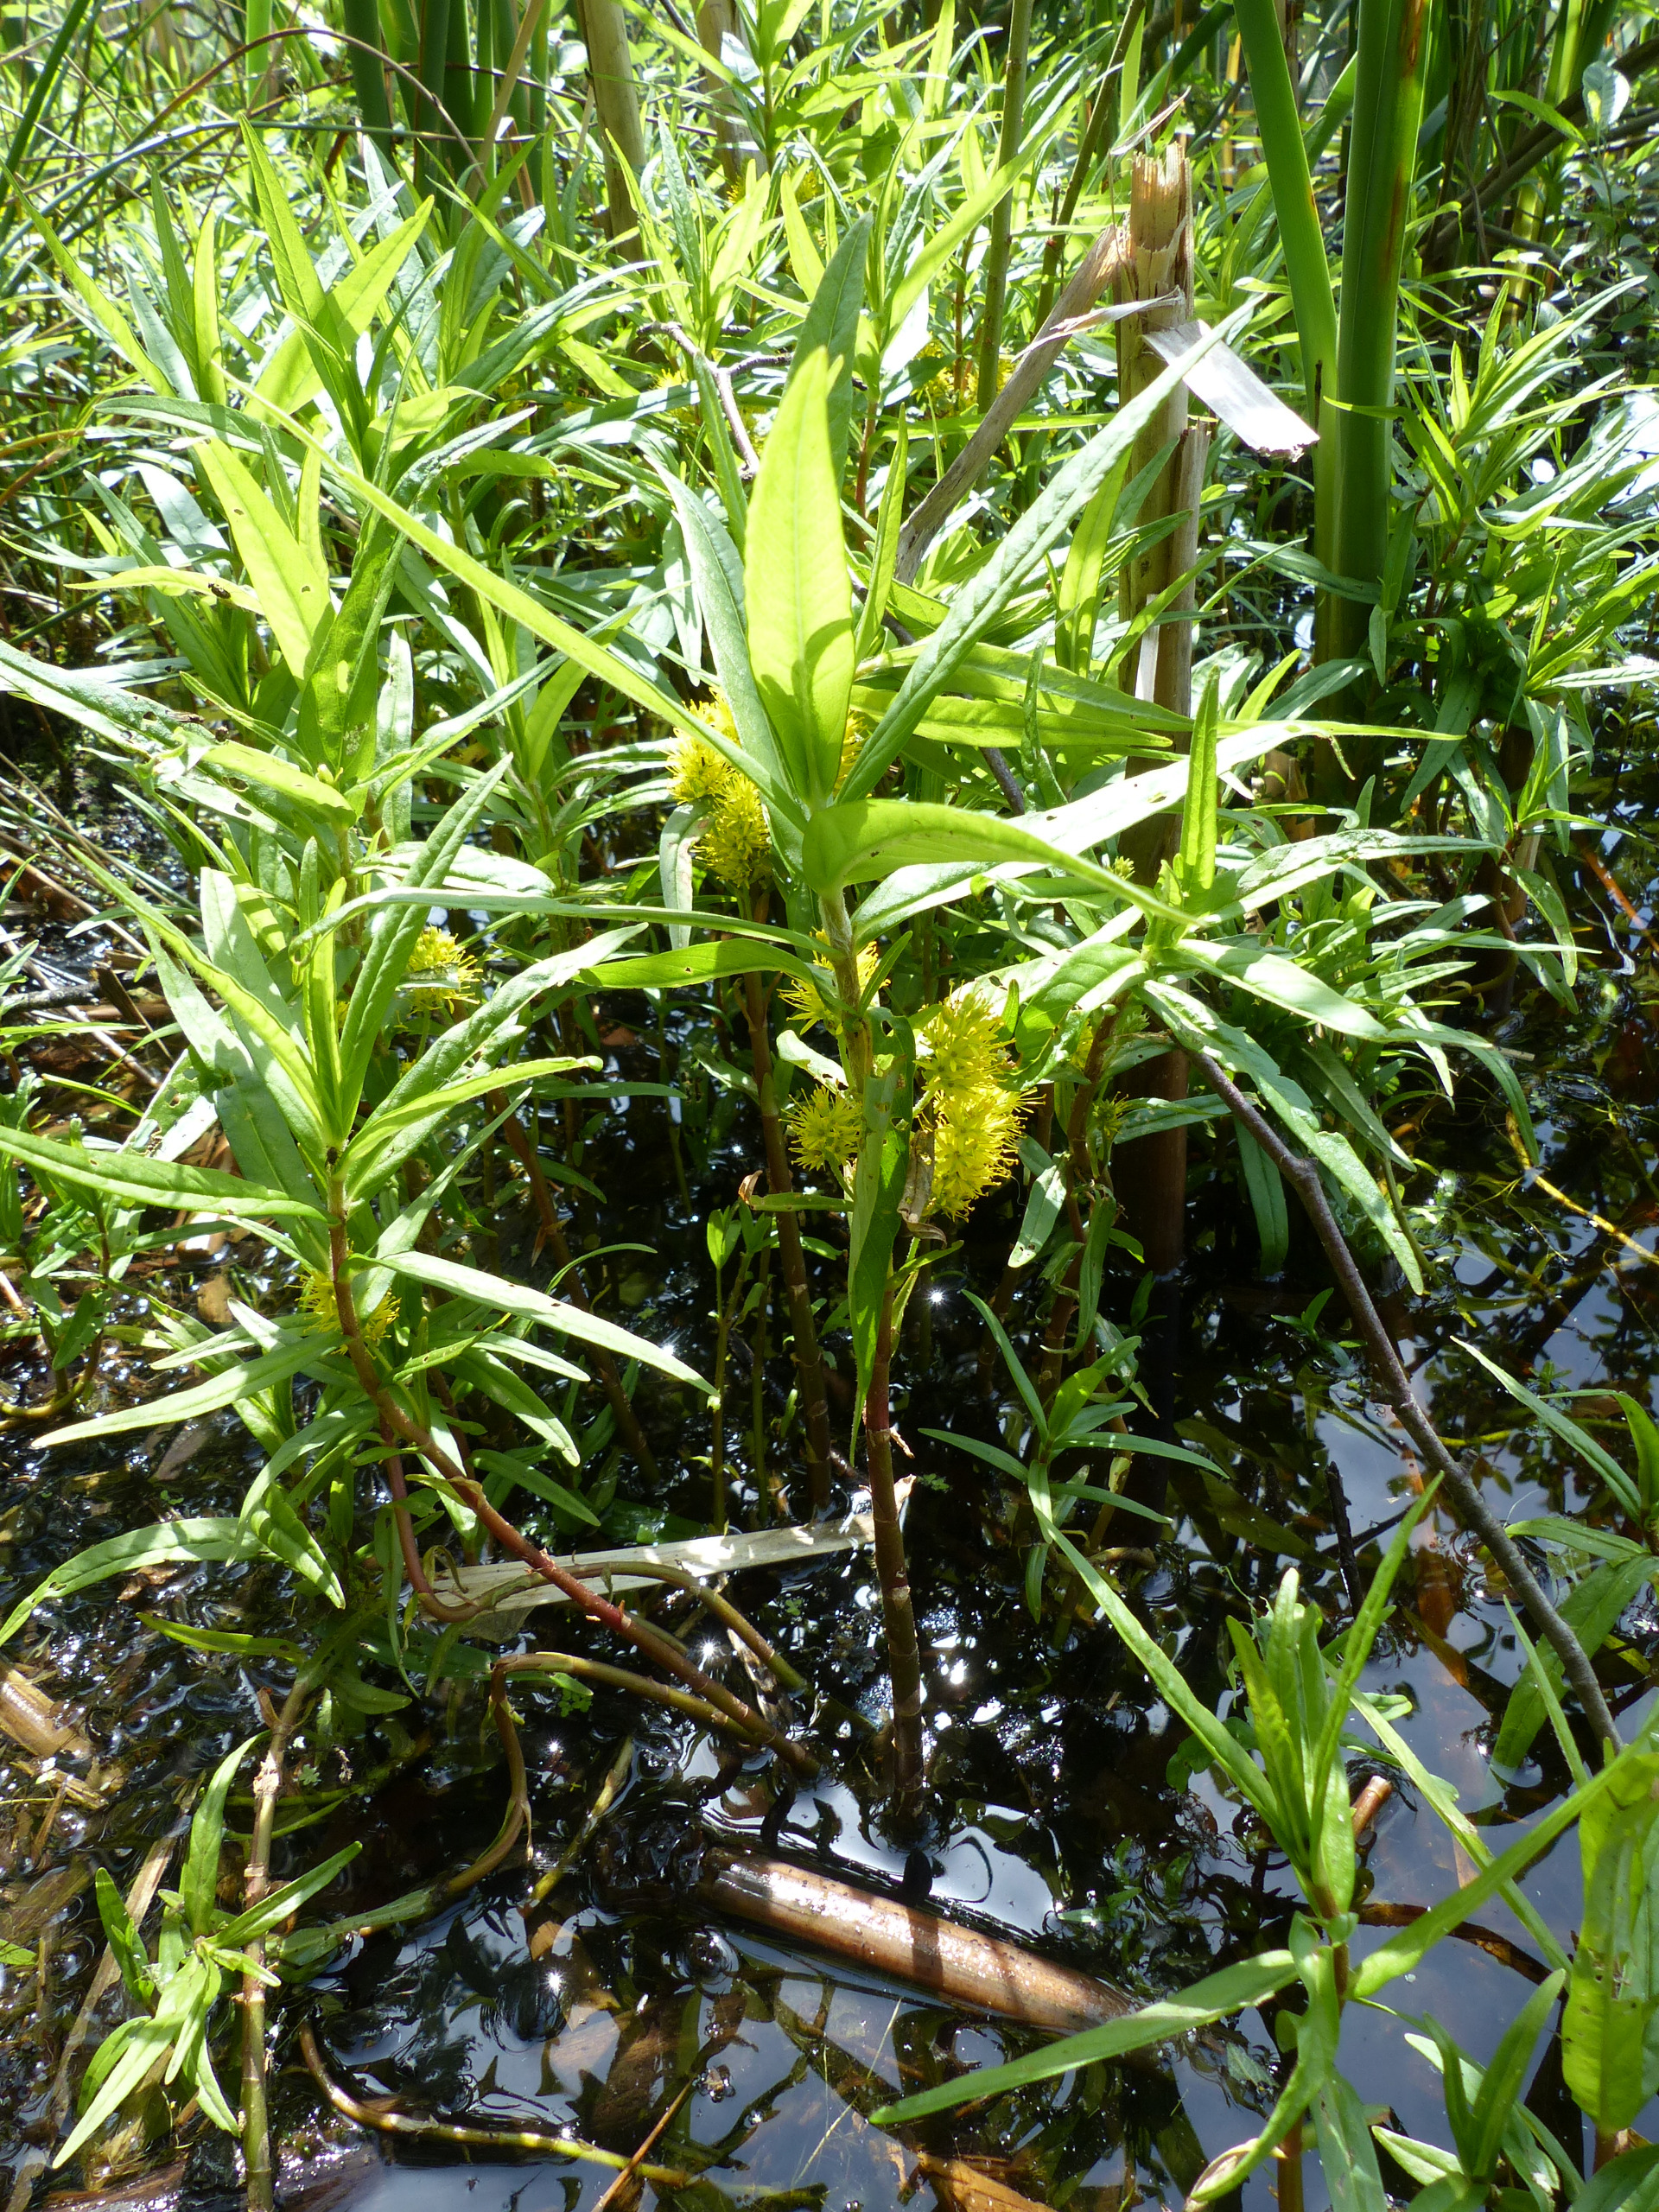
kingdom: Plantae
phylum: Tracheophyta
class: Magnoliopsida
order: Ericales
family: Primulaceae
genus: Lysimachia
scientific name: Lysimachia thyrsiflora
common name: Dusk-fredløs
